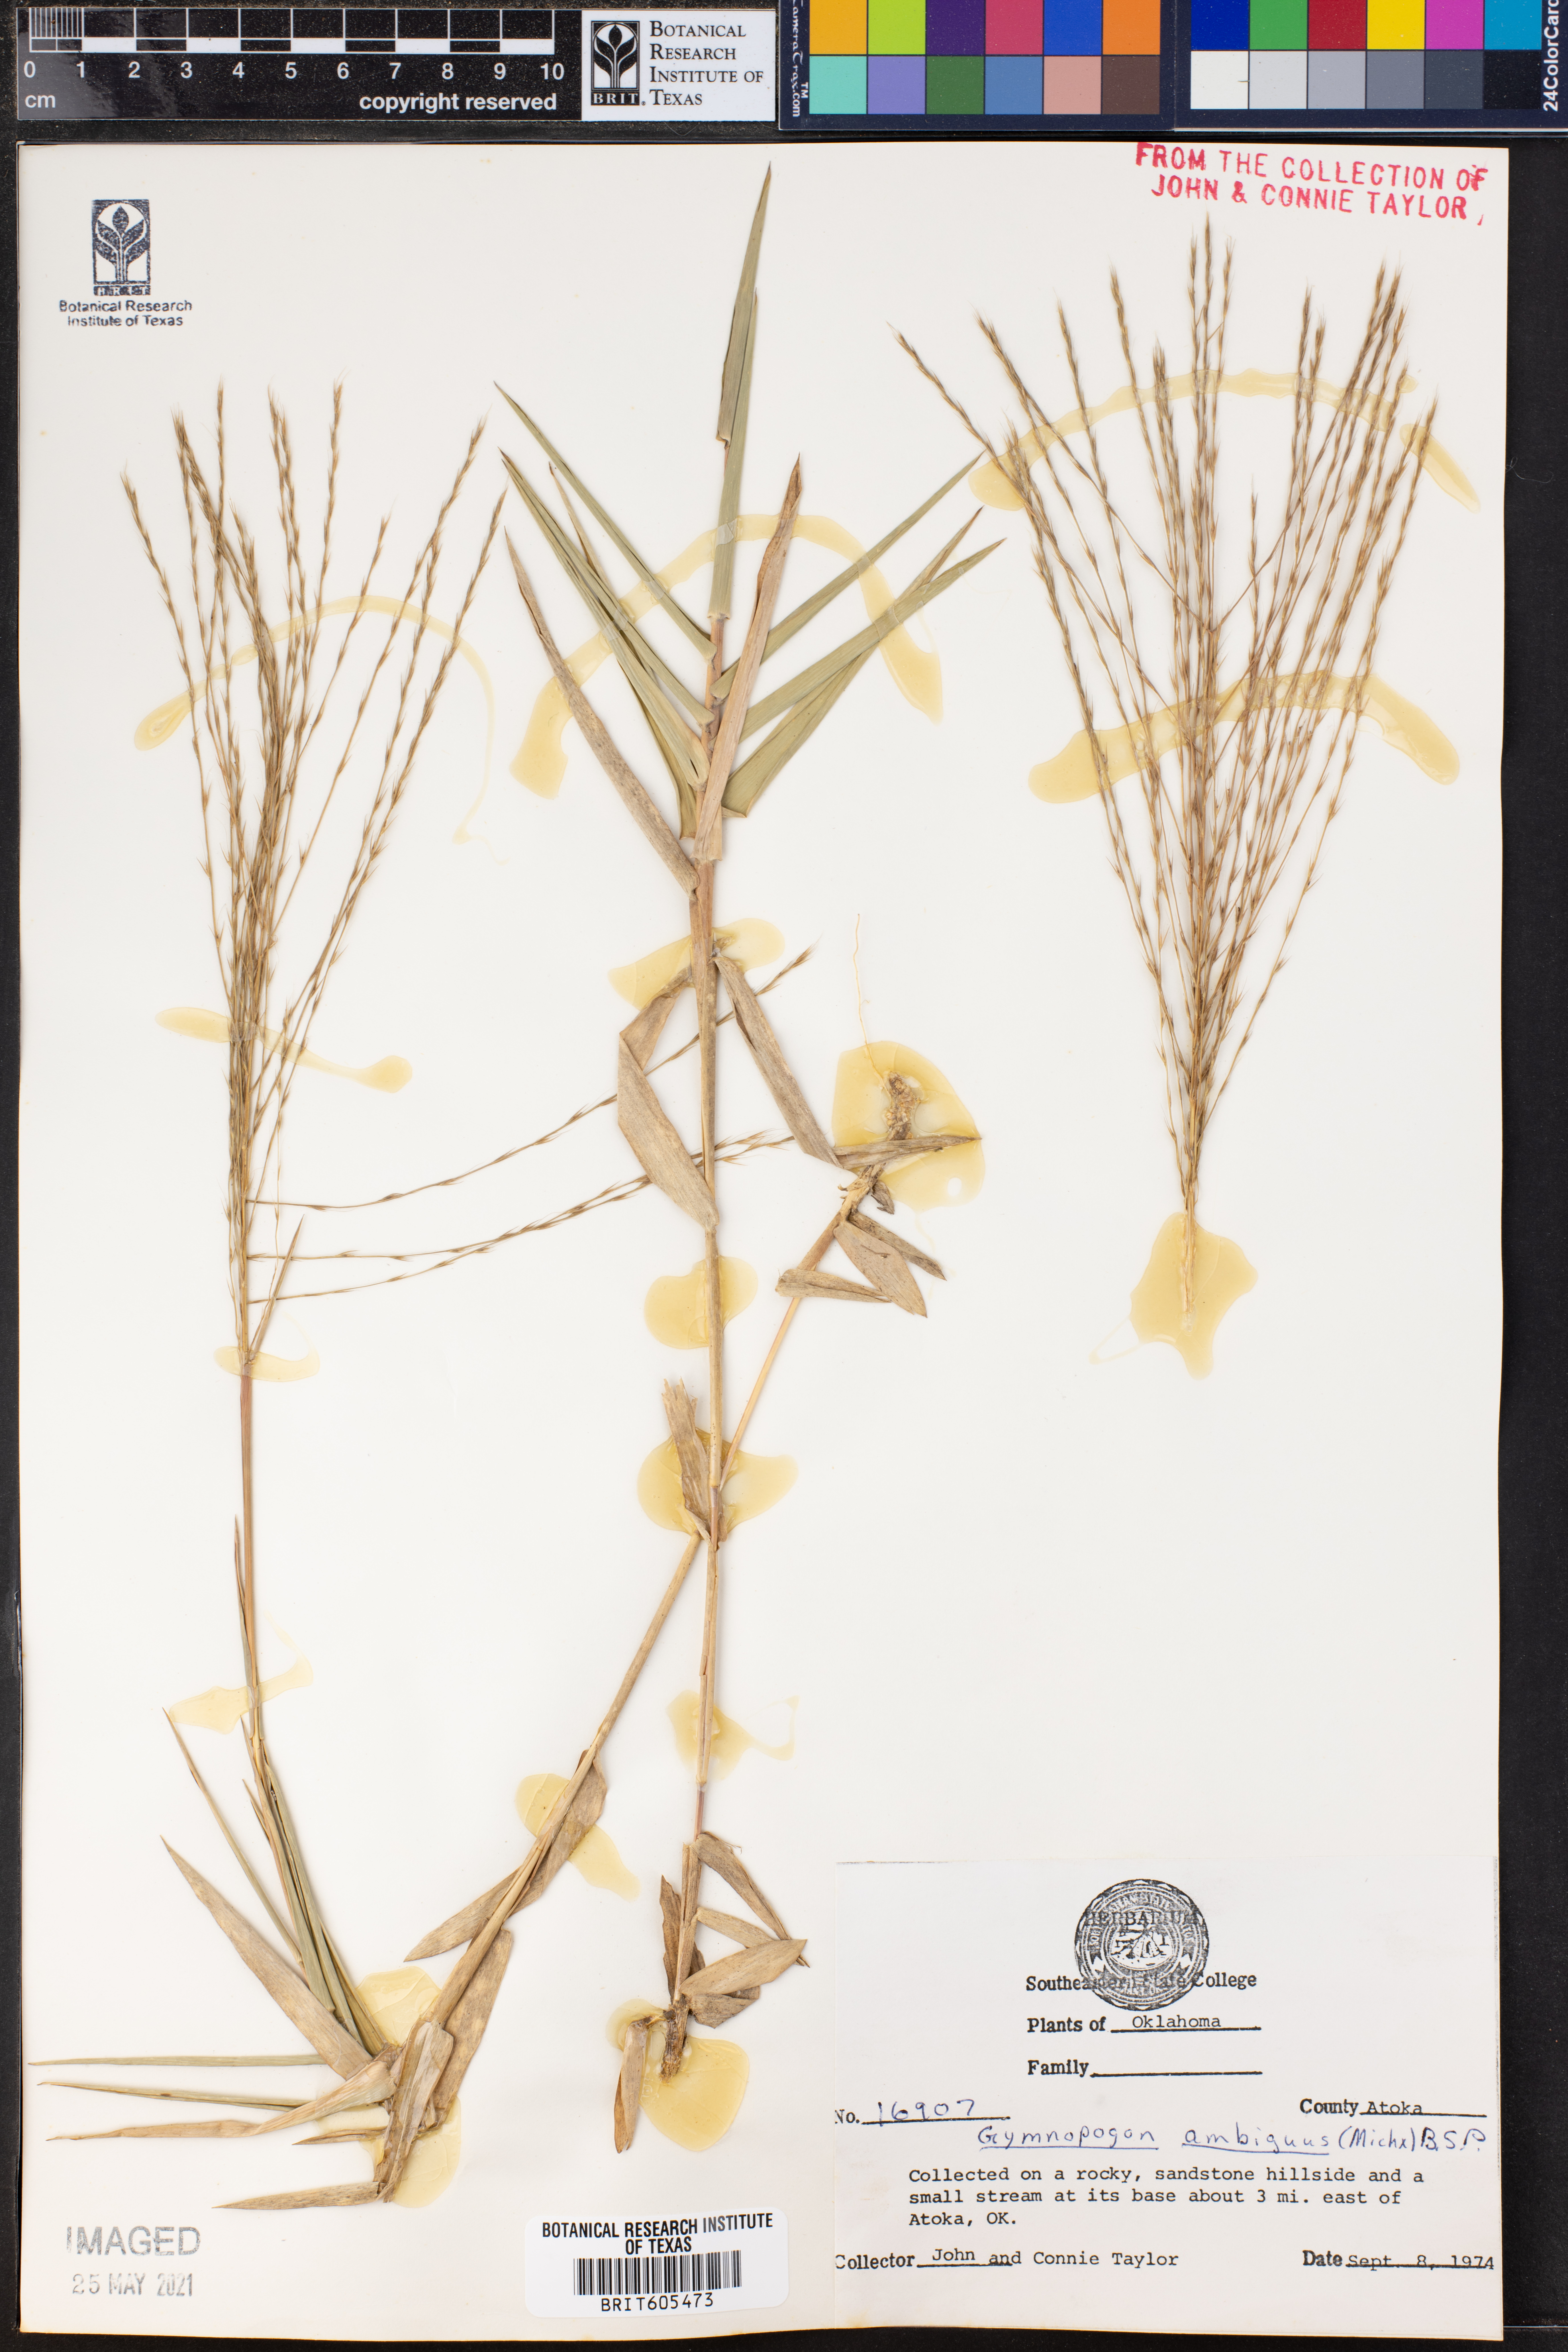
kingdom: Plantae
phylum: Tracheophyta
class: Liliopsida
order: Poales
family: Poaceae
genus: Gymnopogon
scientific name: Gymnopogon ambiguus
